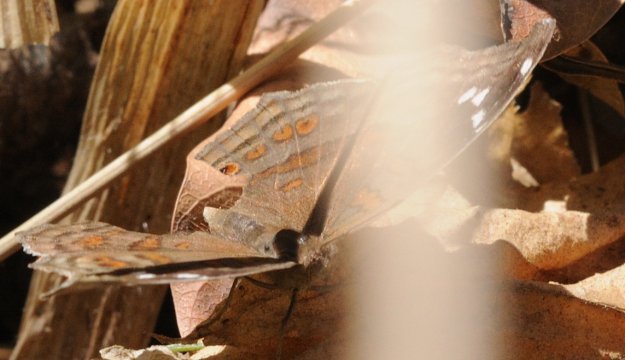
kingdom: Animalia
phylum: Arthropoda
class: Insecta
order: Lepidoptera
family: Nymphalidae
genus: Junonia
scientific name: Junonia natalica
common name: Natal Pansy
